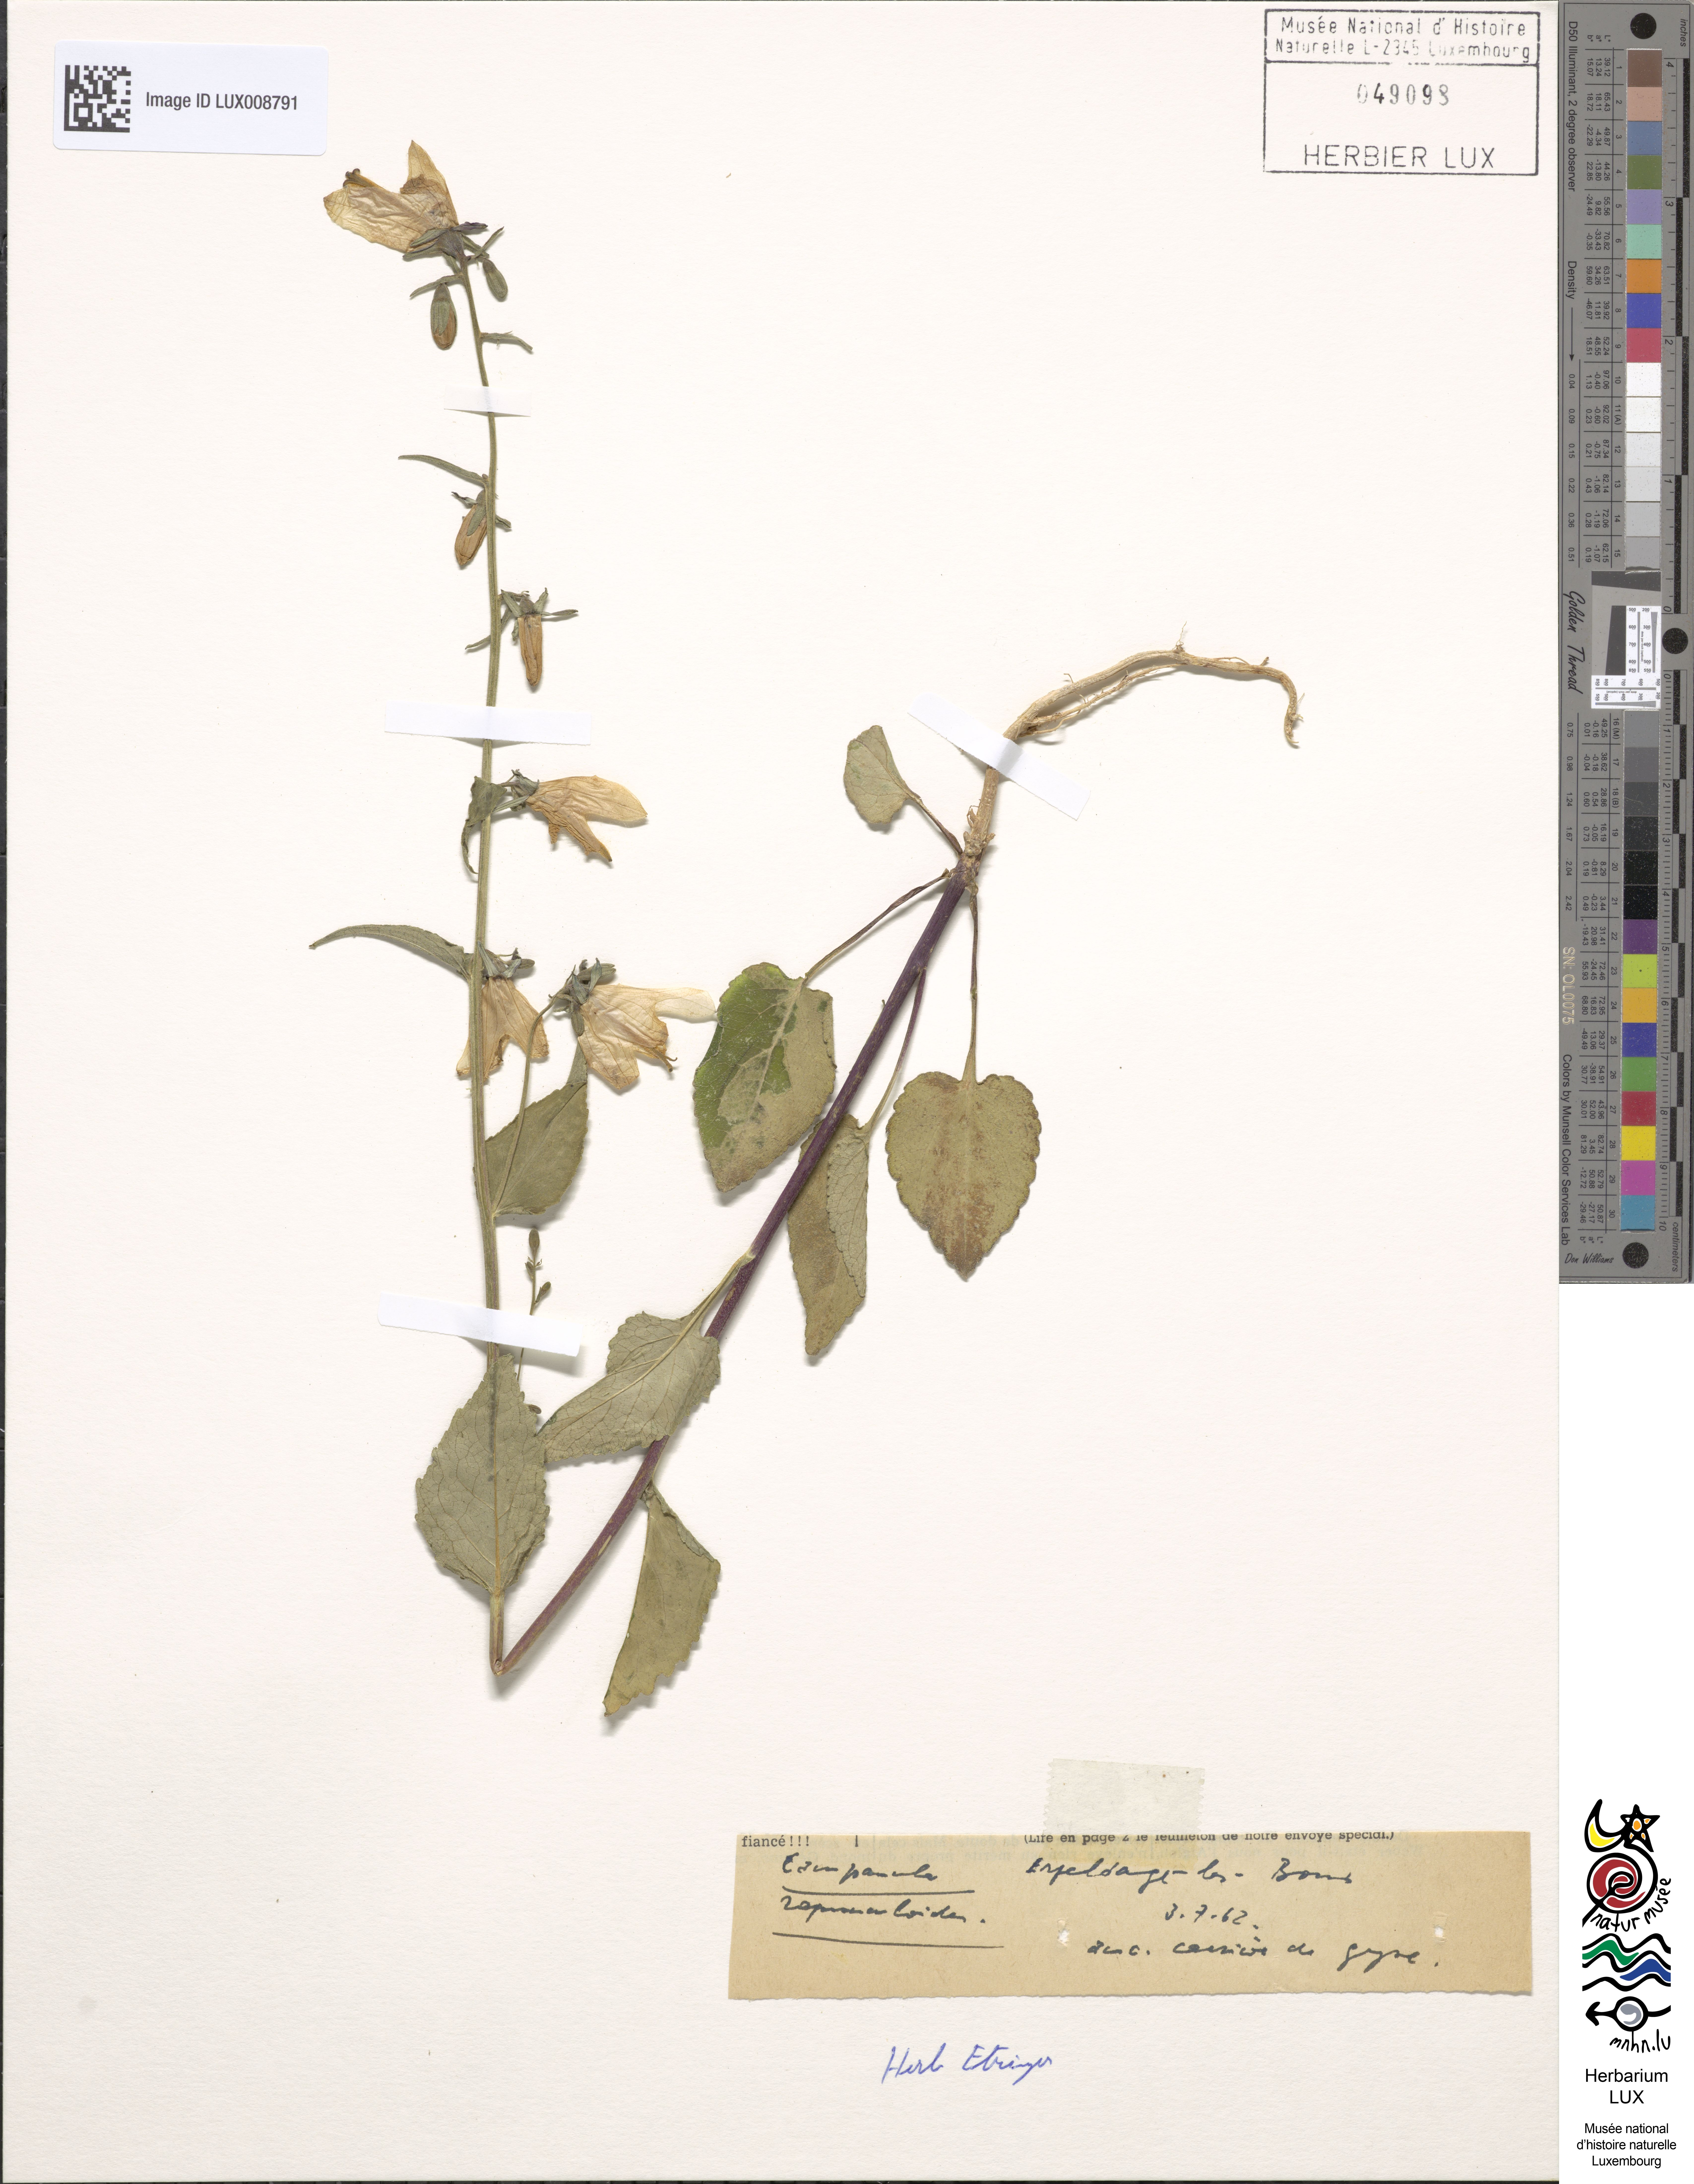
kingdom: Plantae
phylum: Tracheophyta
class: Magnoliopsida
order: Asterales
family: Campanulaceae
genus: Campanula
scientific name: Campanula rapunculoides
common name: Creeping bellflower
